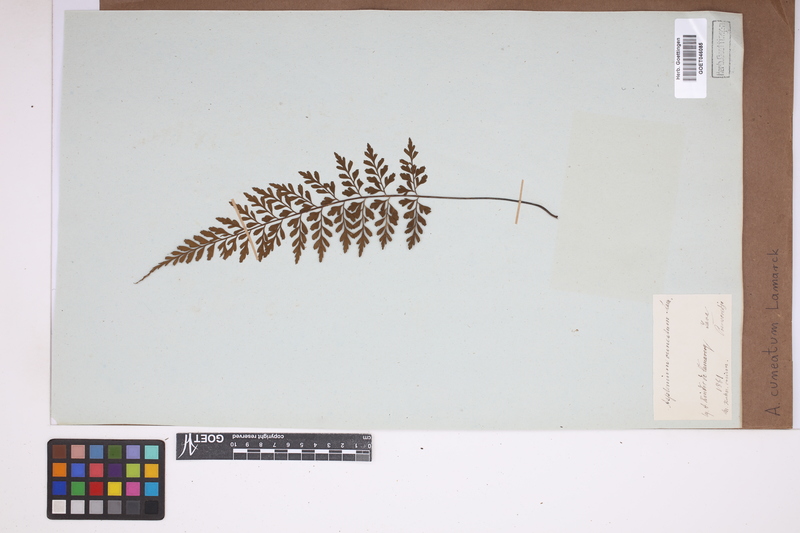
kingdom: Plantae
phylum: Tracheophyta
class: Polypodiopsida
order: Polypodiales
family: Aspleniaceae
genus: Asplenium
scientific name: Asplenium cuneatum
